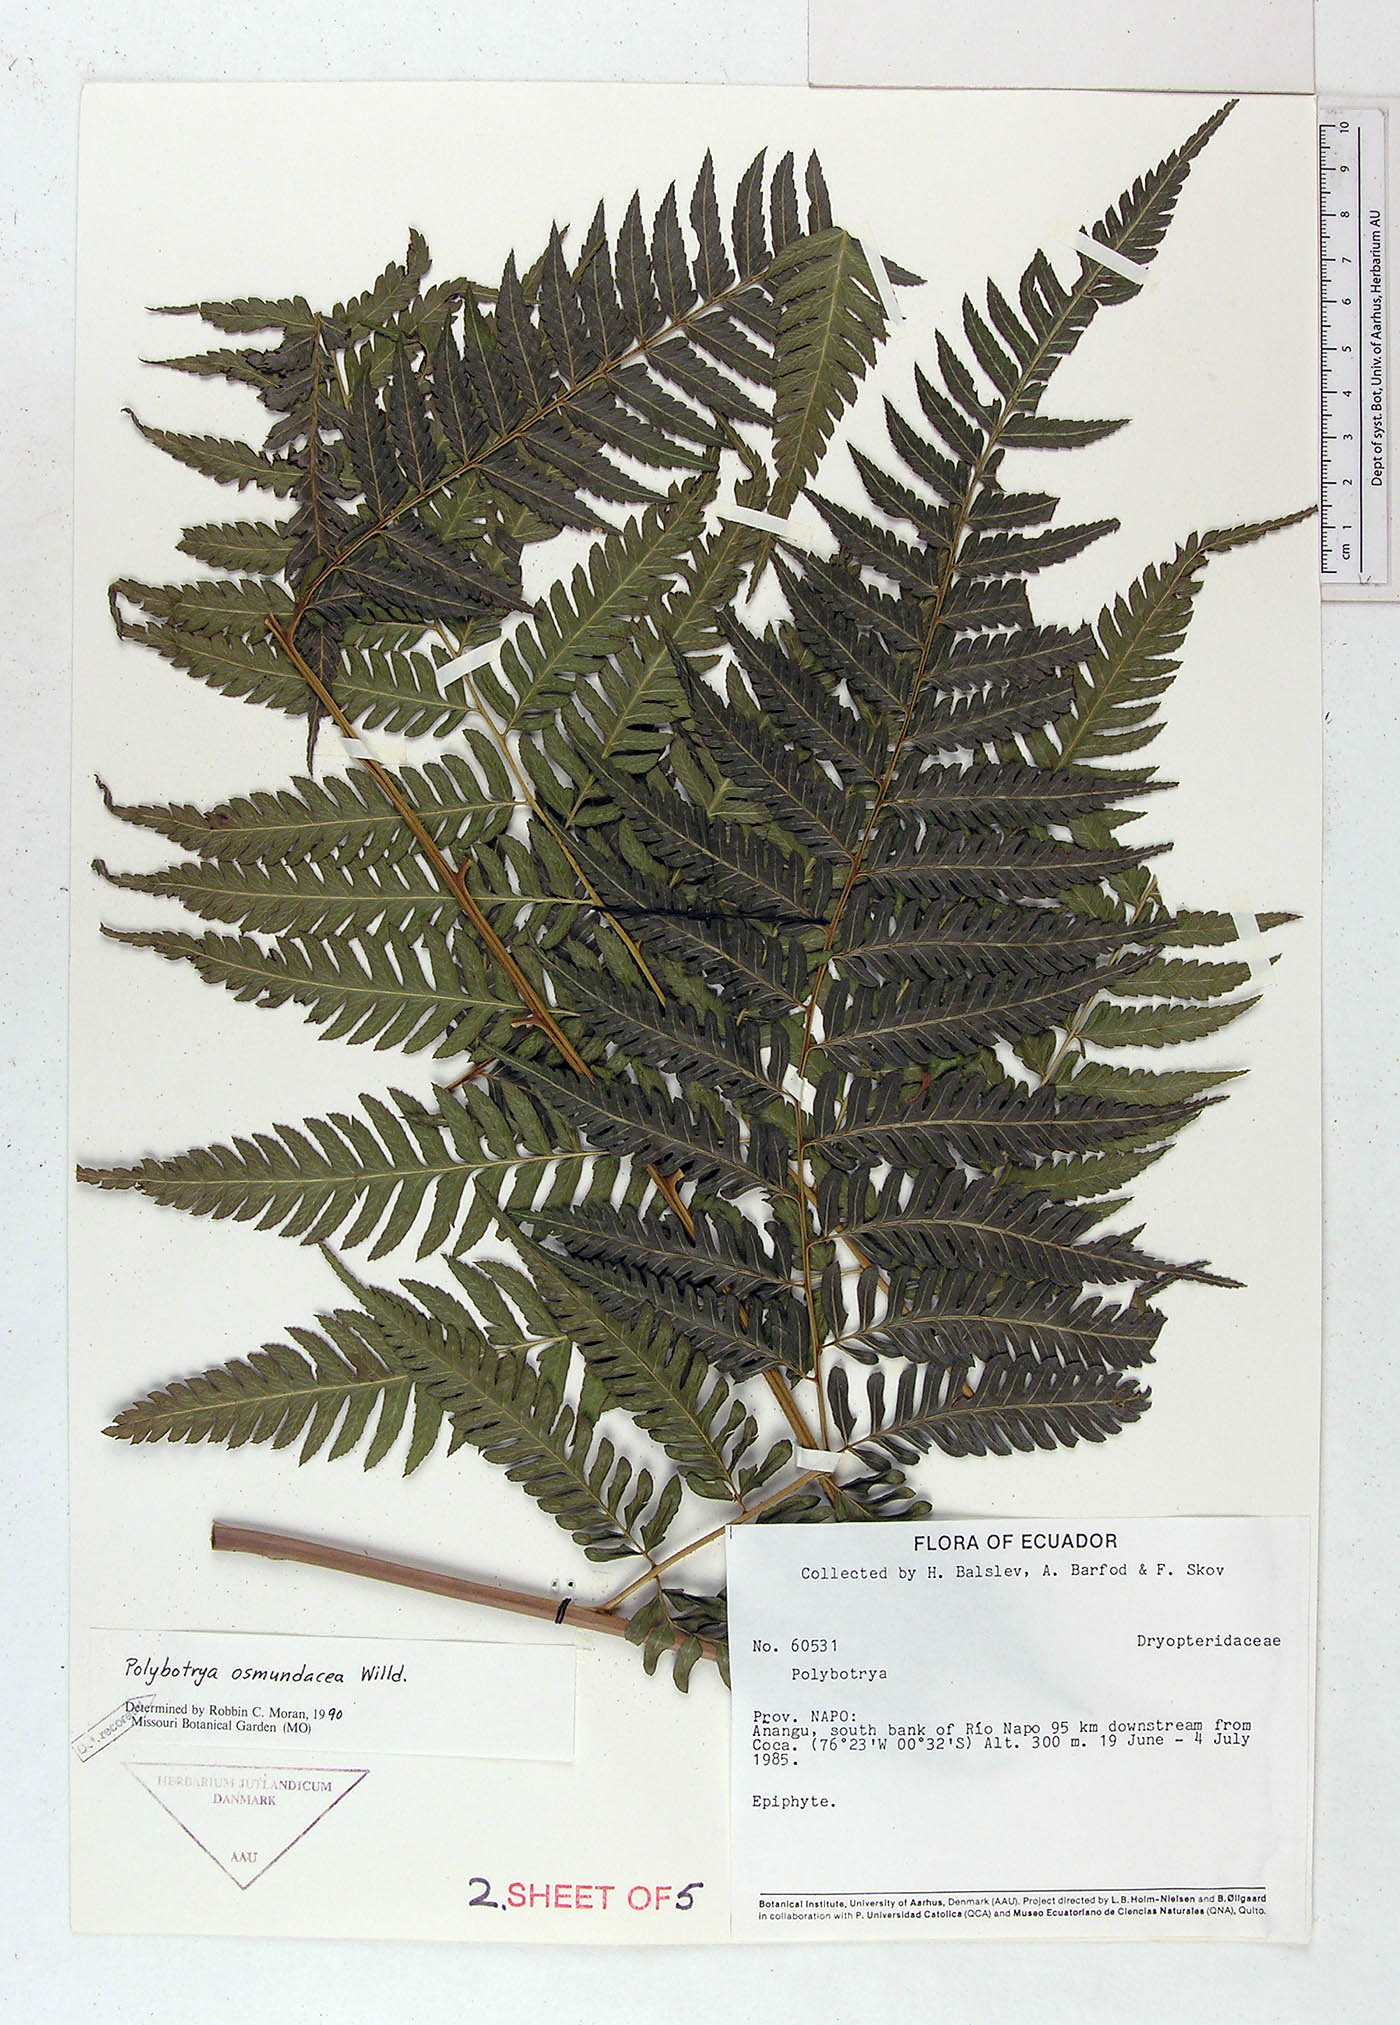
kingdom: Plantae
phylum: Tracheophyta
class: Polypodiopsida
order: Polypodiales
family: Dryopteridaceae
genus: Polybotrya
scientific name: Polybotrya osmundacea
